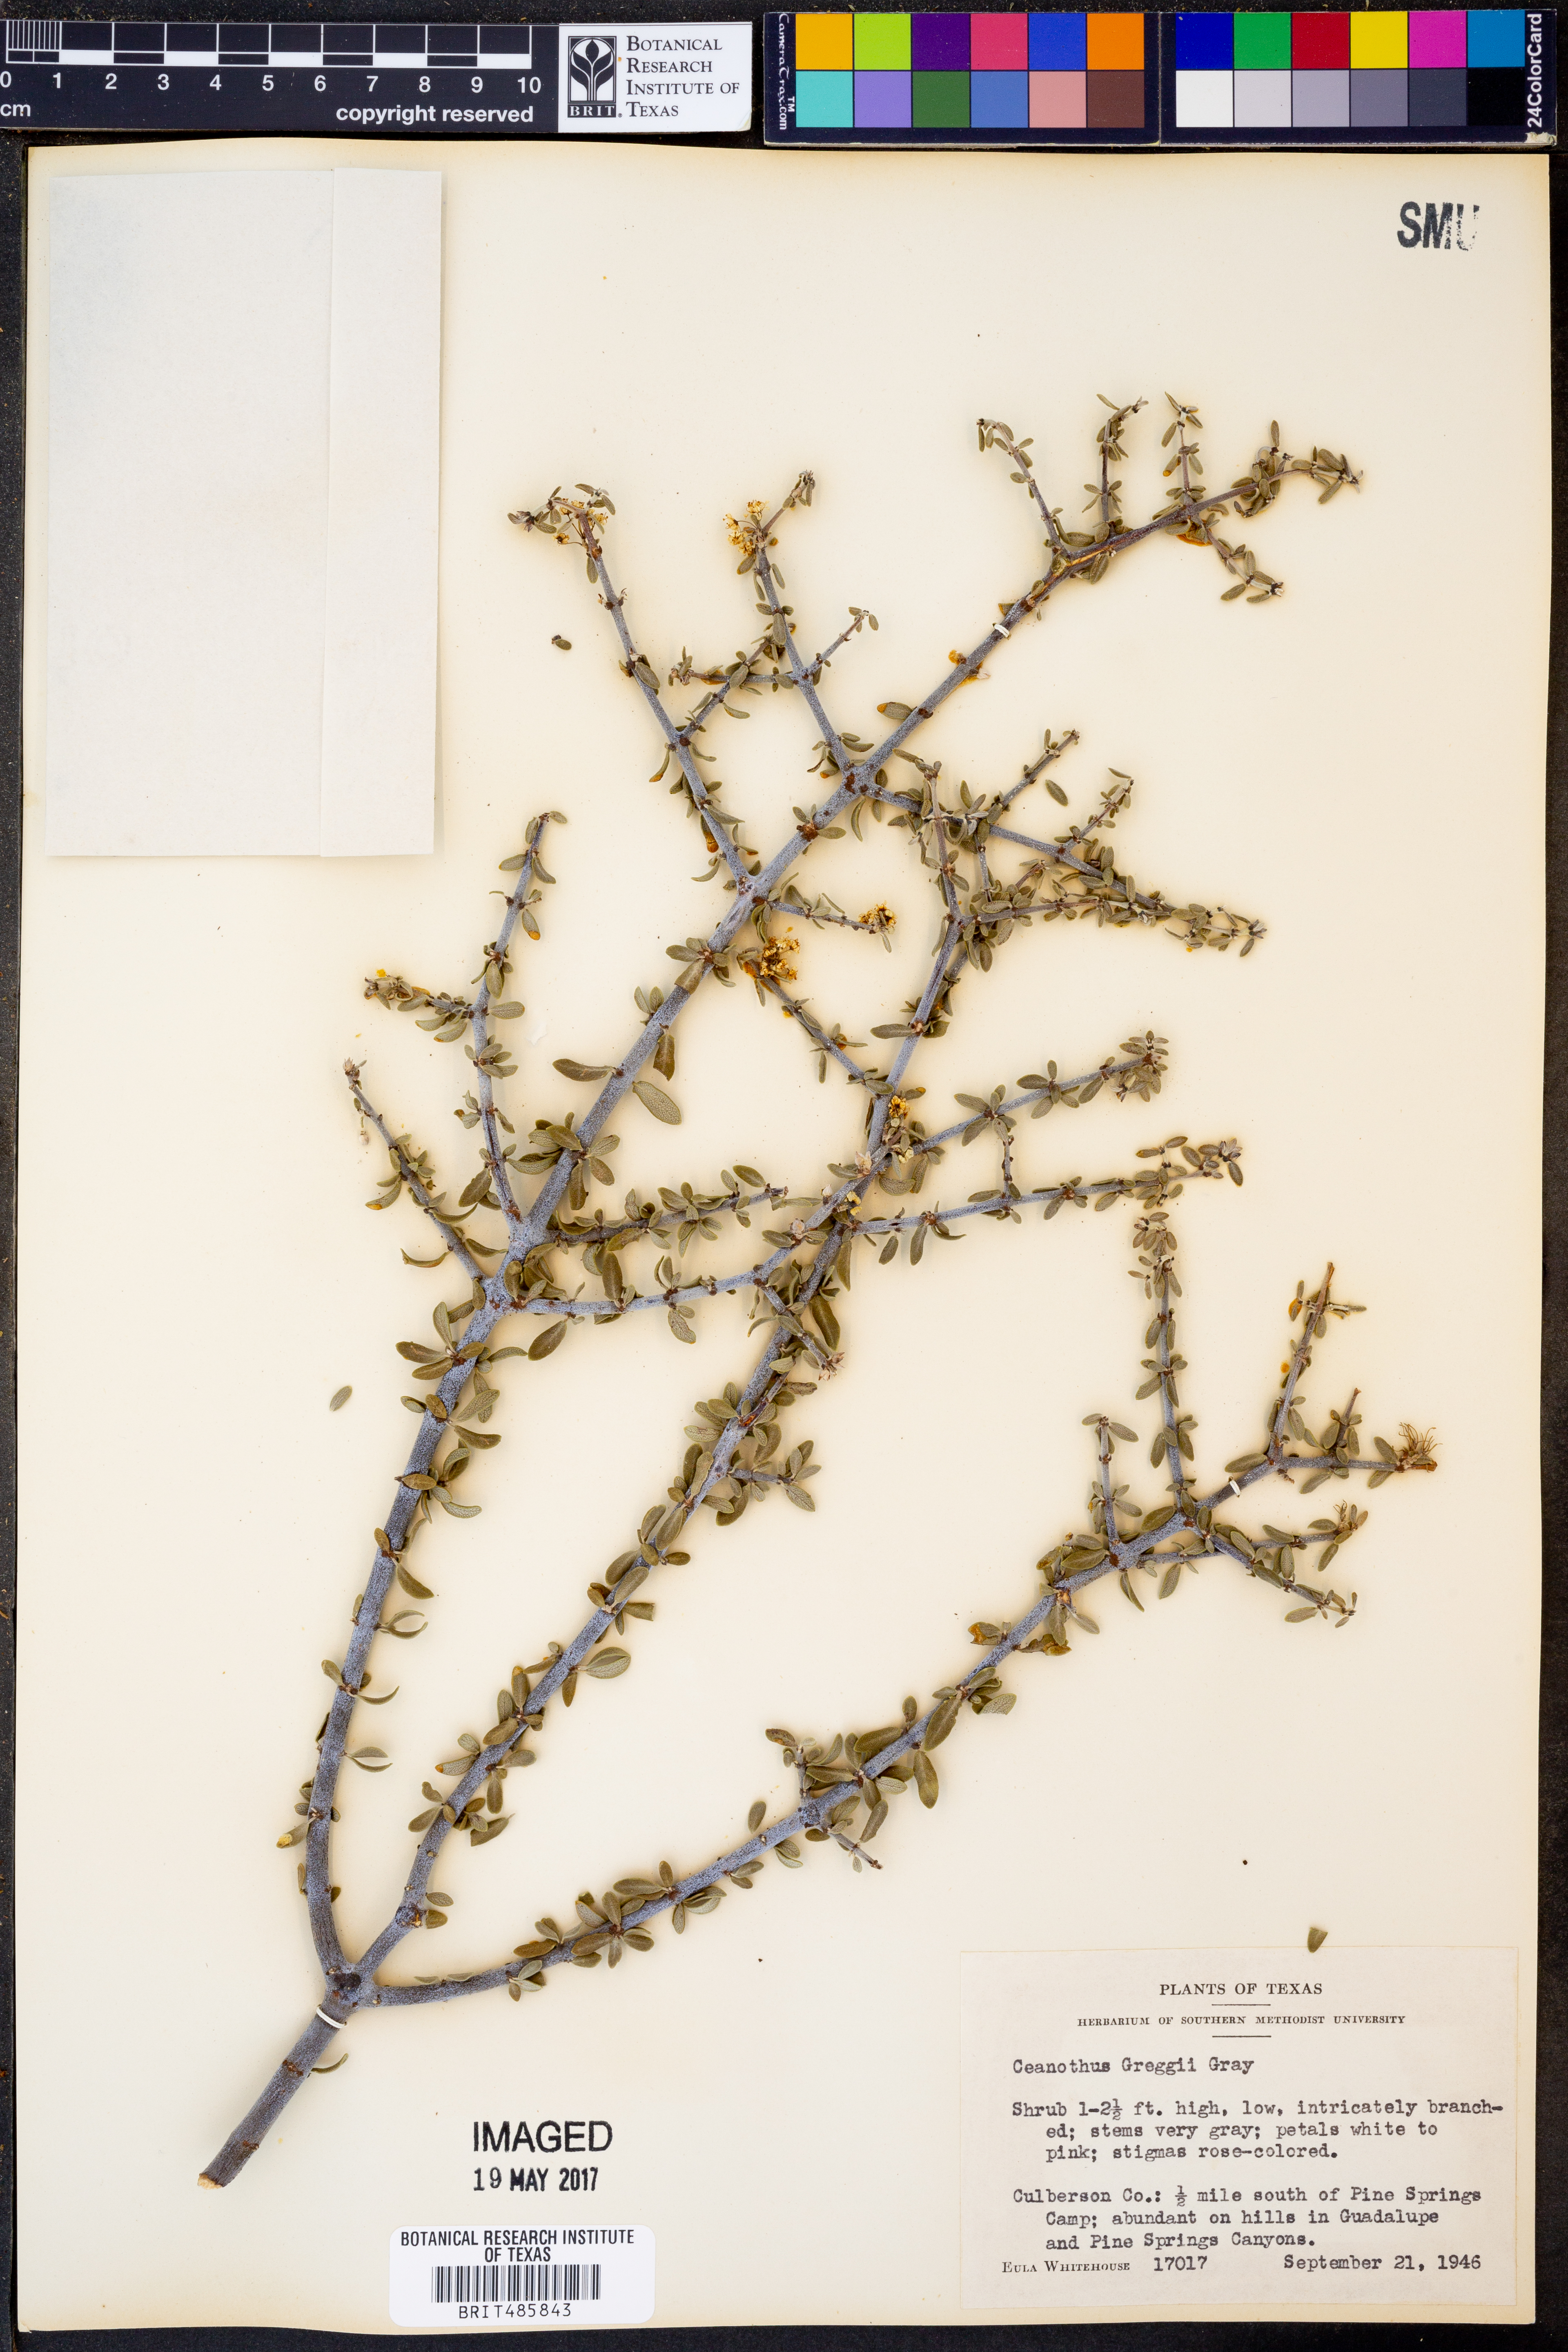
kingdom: Plantae
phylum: Tracheophyta
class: Magnoliopsida
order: Rosales
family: Rhamnaceae
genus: Ceanothus
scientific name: Ceanothus pauciflorus
